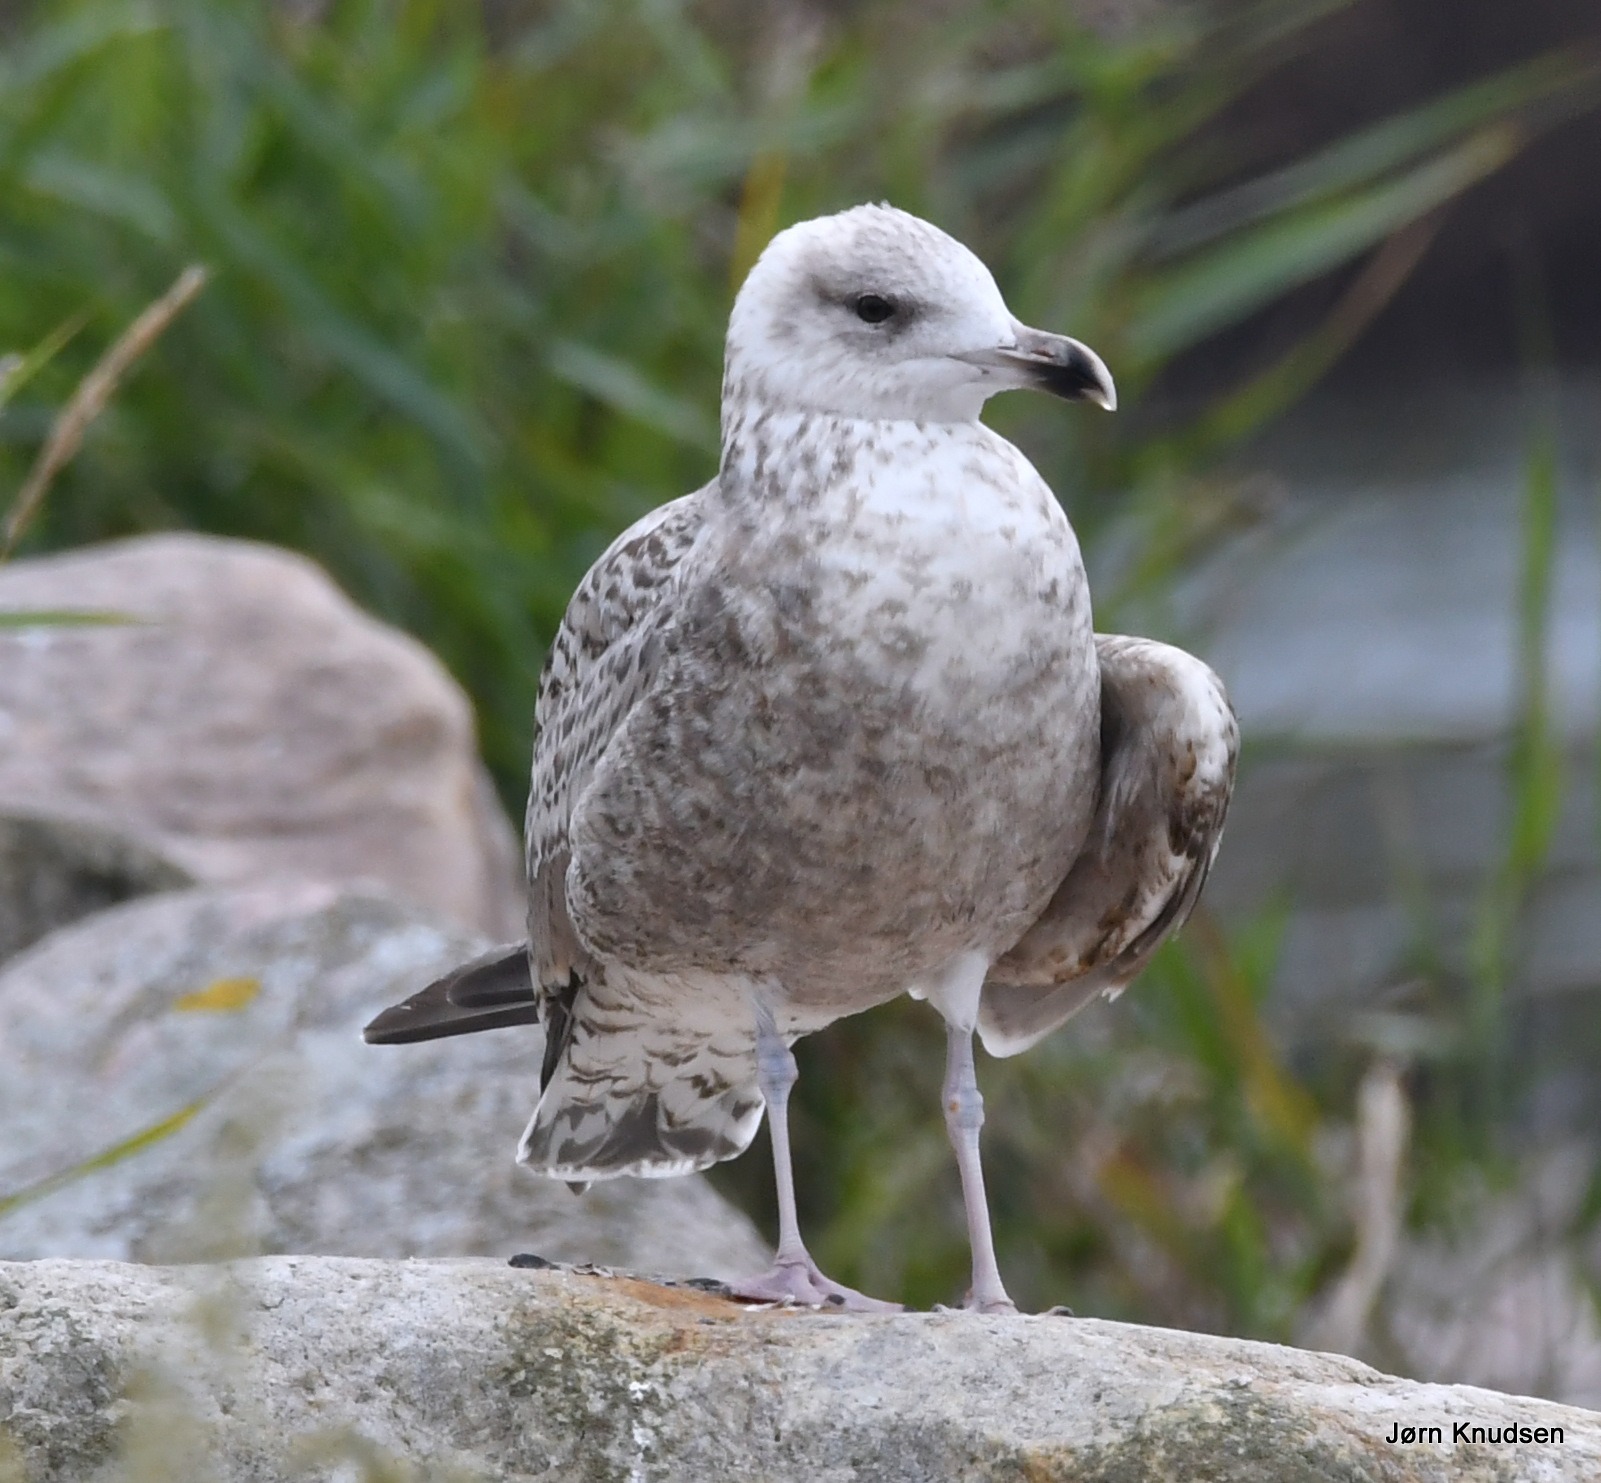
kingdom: Animalia
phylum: Chordata
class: Aves
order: Charadriiformes
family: Laridae
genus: Larus
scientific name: Larus argentatus
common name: Sølvmåge
